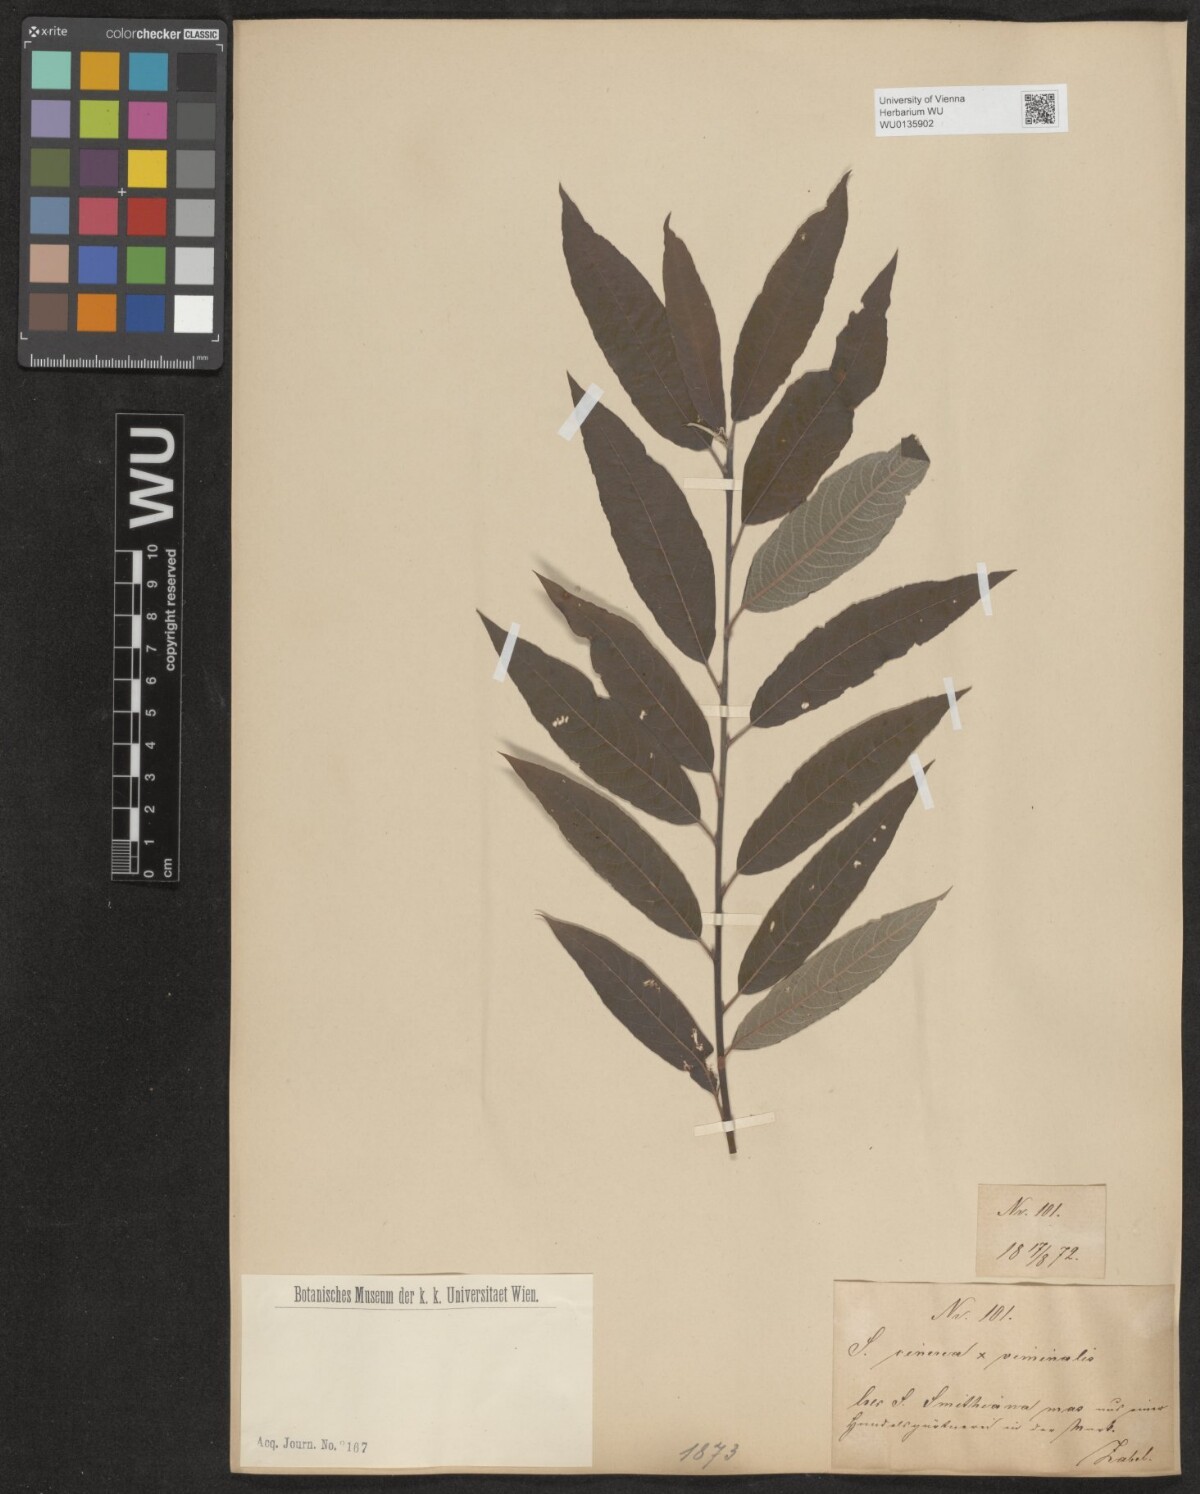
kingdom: Plantae
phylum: Tracheophyta
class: Magnoliopsida
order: Malpighiales
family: Salicaceae
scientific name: Salicaceae
